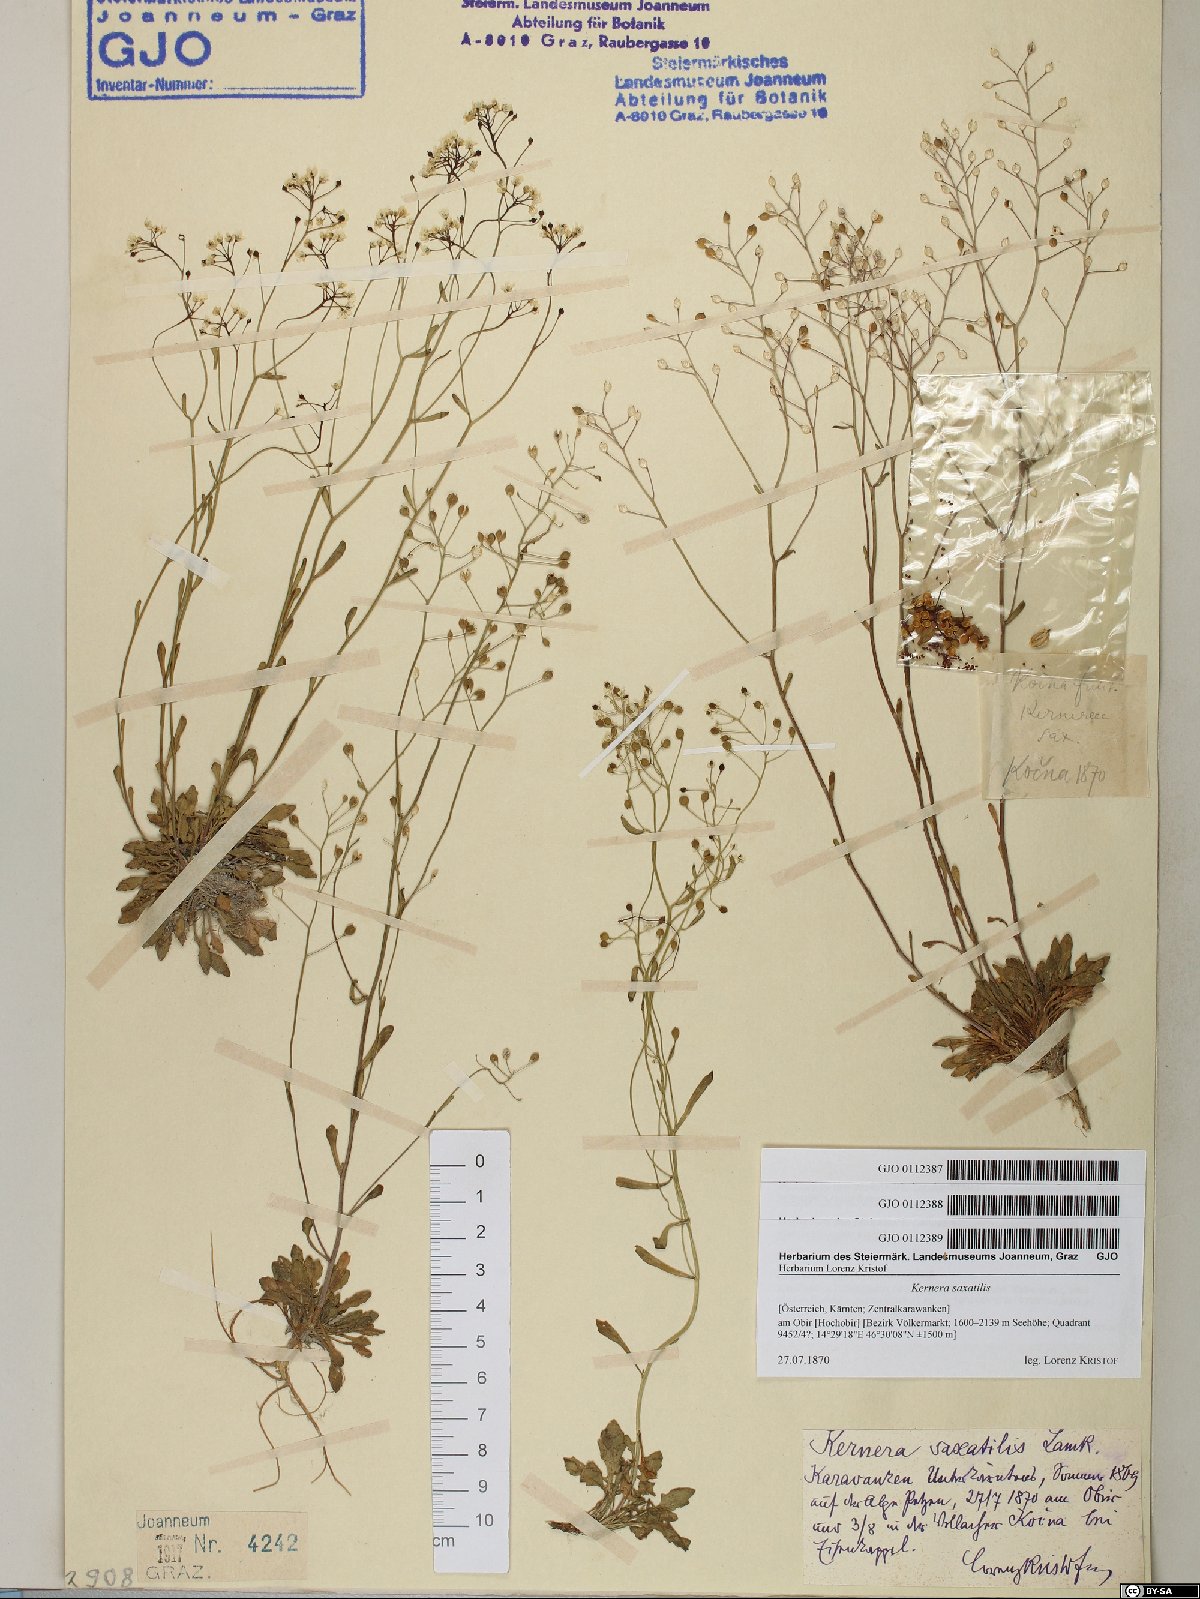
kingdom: Plantae
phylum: Tracheophyta
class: Magnoliopsida
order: Brassicales
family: Brassicaceae
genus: Kernera
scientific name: Kernera saxatilis
